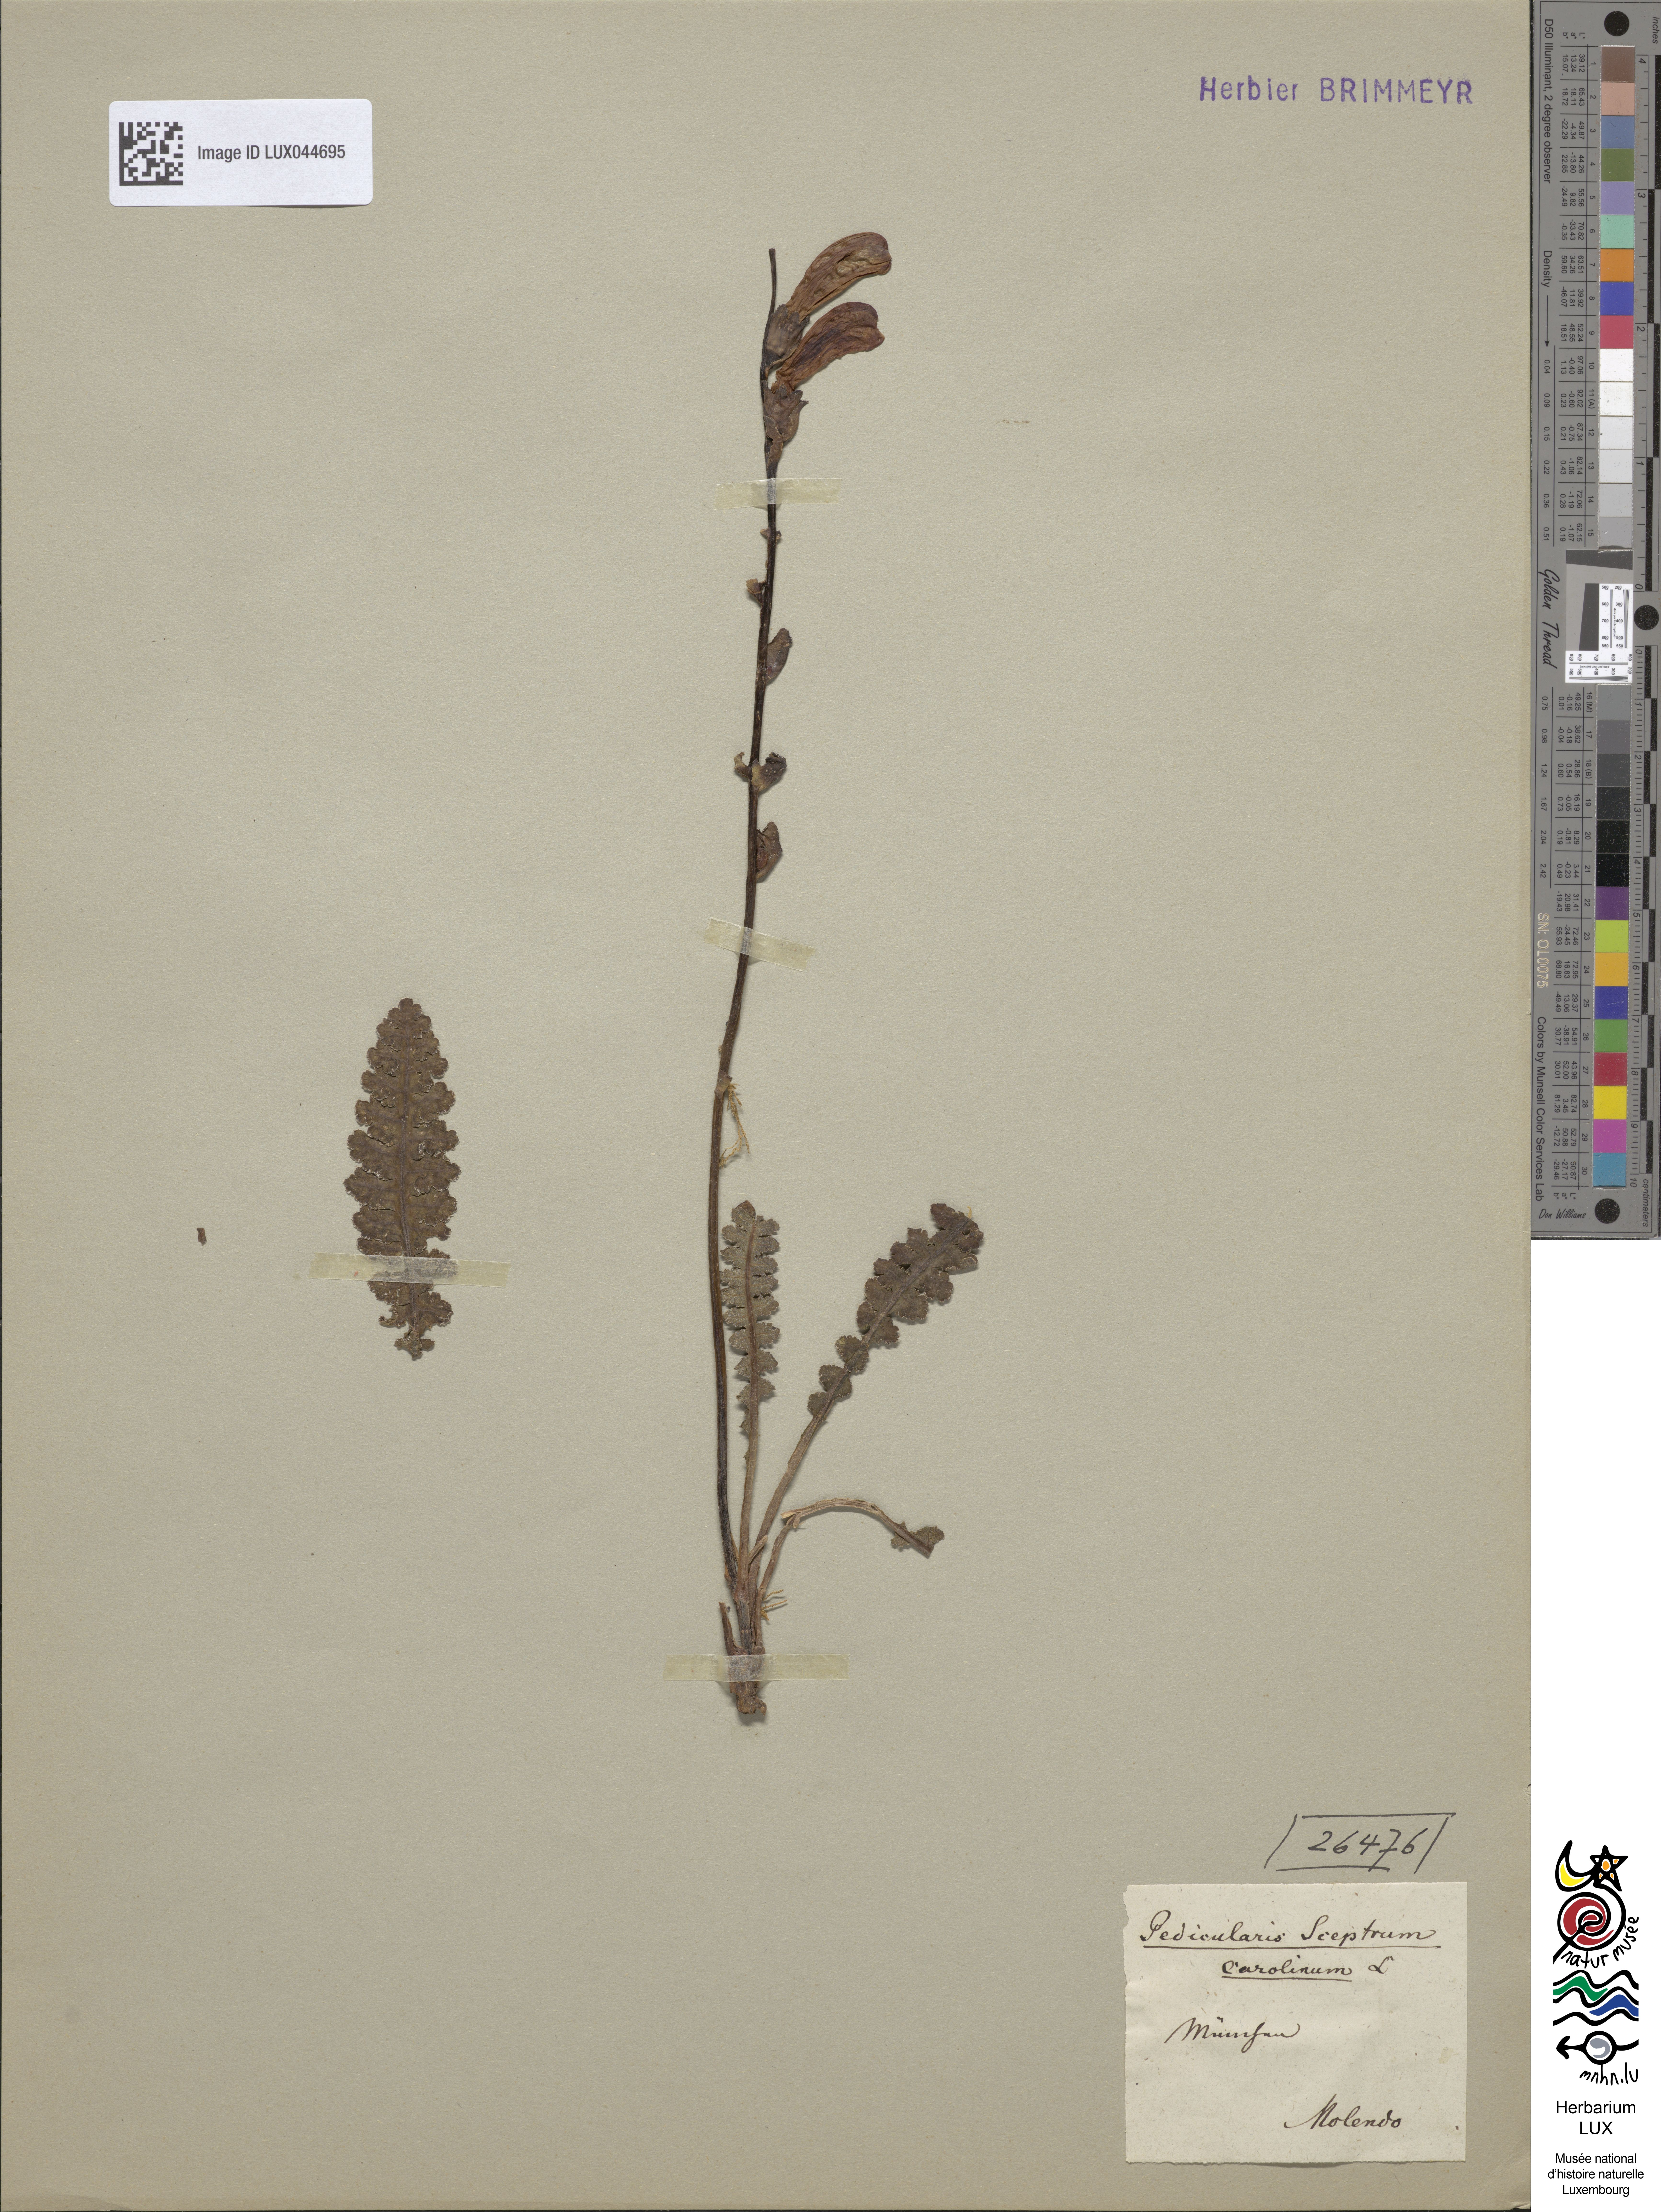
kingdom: Plantae
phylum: Tracheophyta
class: Magnoliopsida
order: Lamiales
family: Orobanchaceae
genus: Pedicularis
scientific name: Pedicularis sceptrum-carolinum
